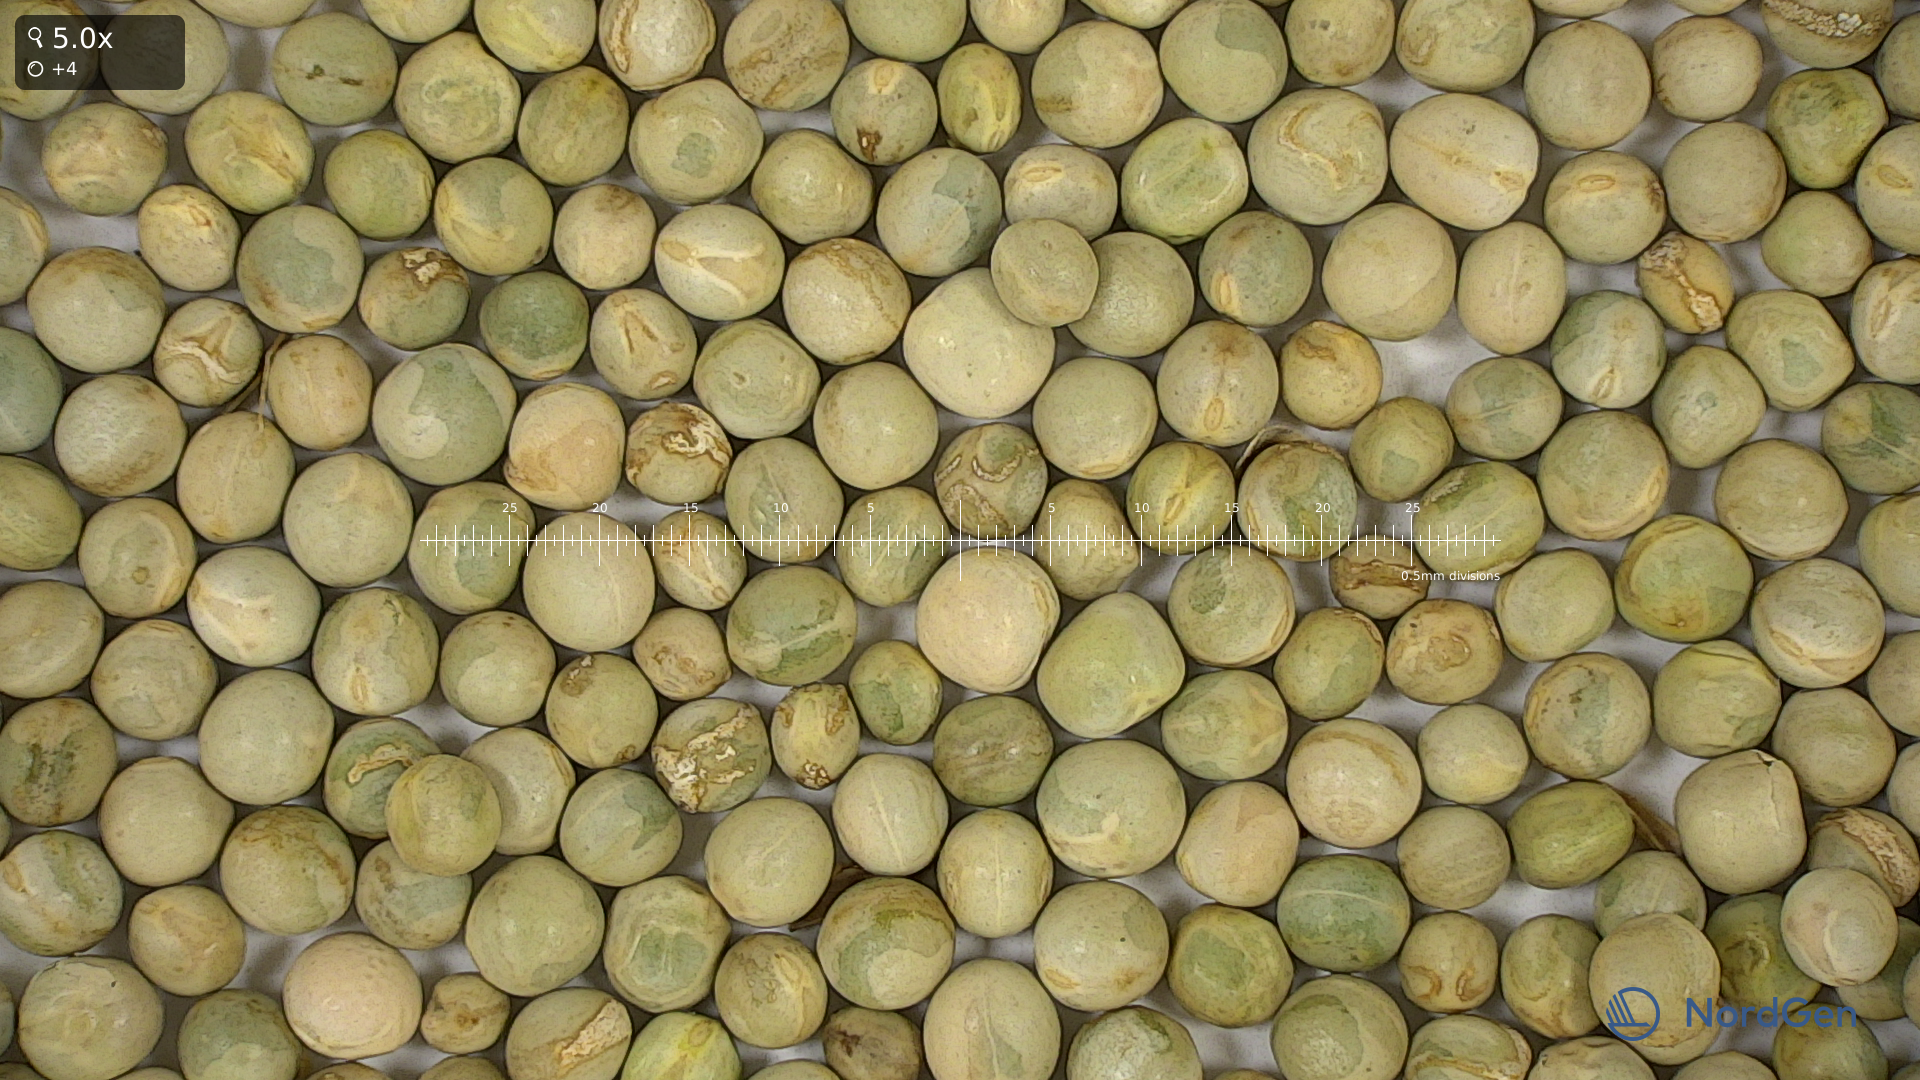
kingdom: Plantae
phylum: Tracheophyta
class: Magnoliopsida
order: Fabales
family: Fabaceae
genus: Lathyrus
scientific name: Lathyrus oleraceus
